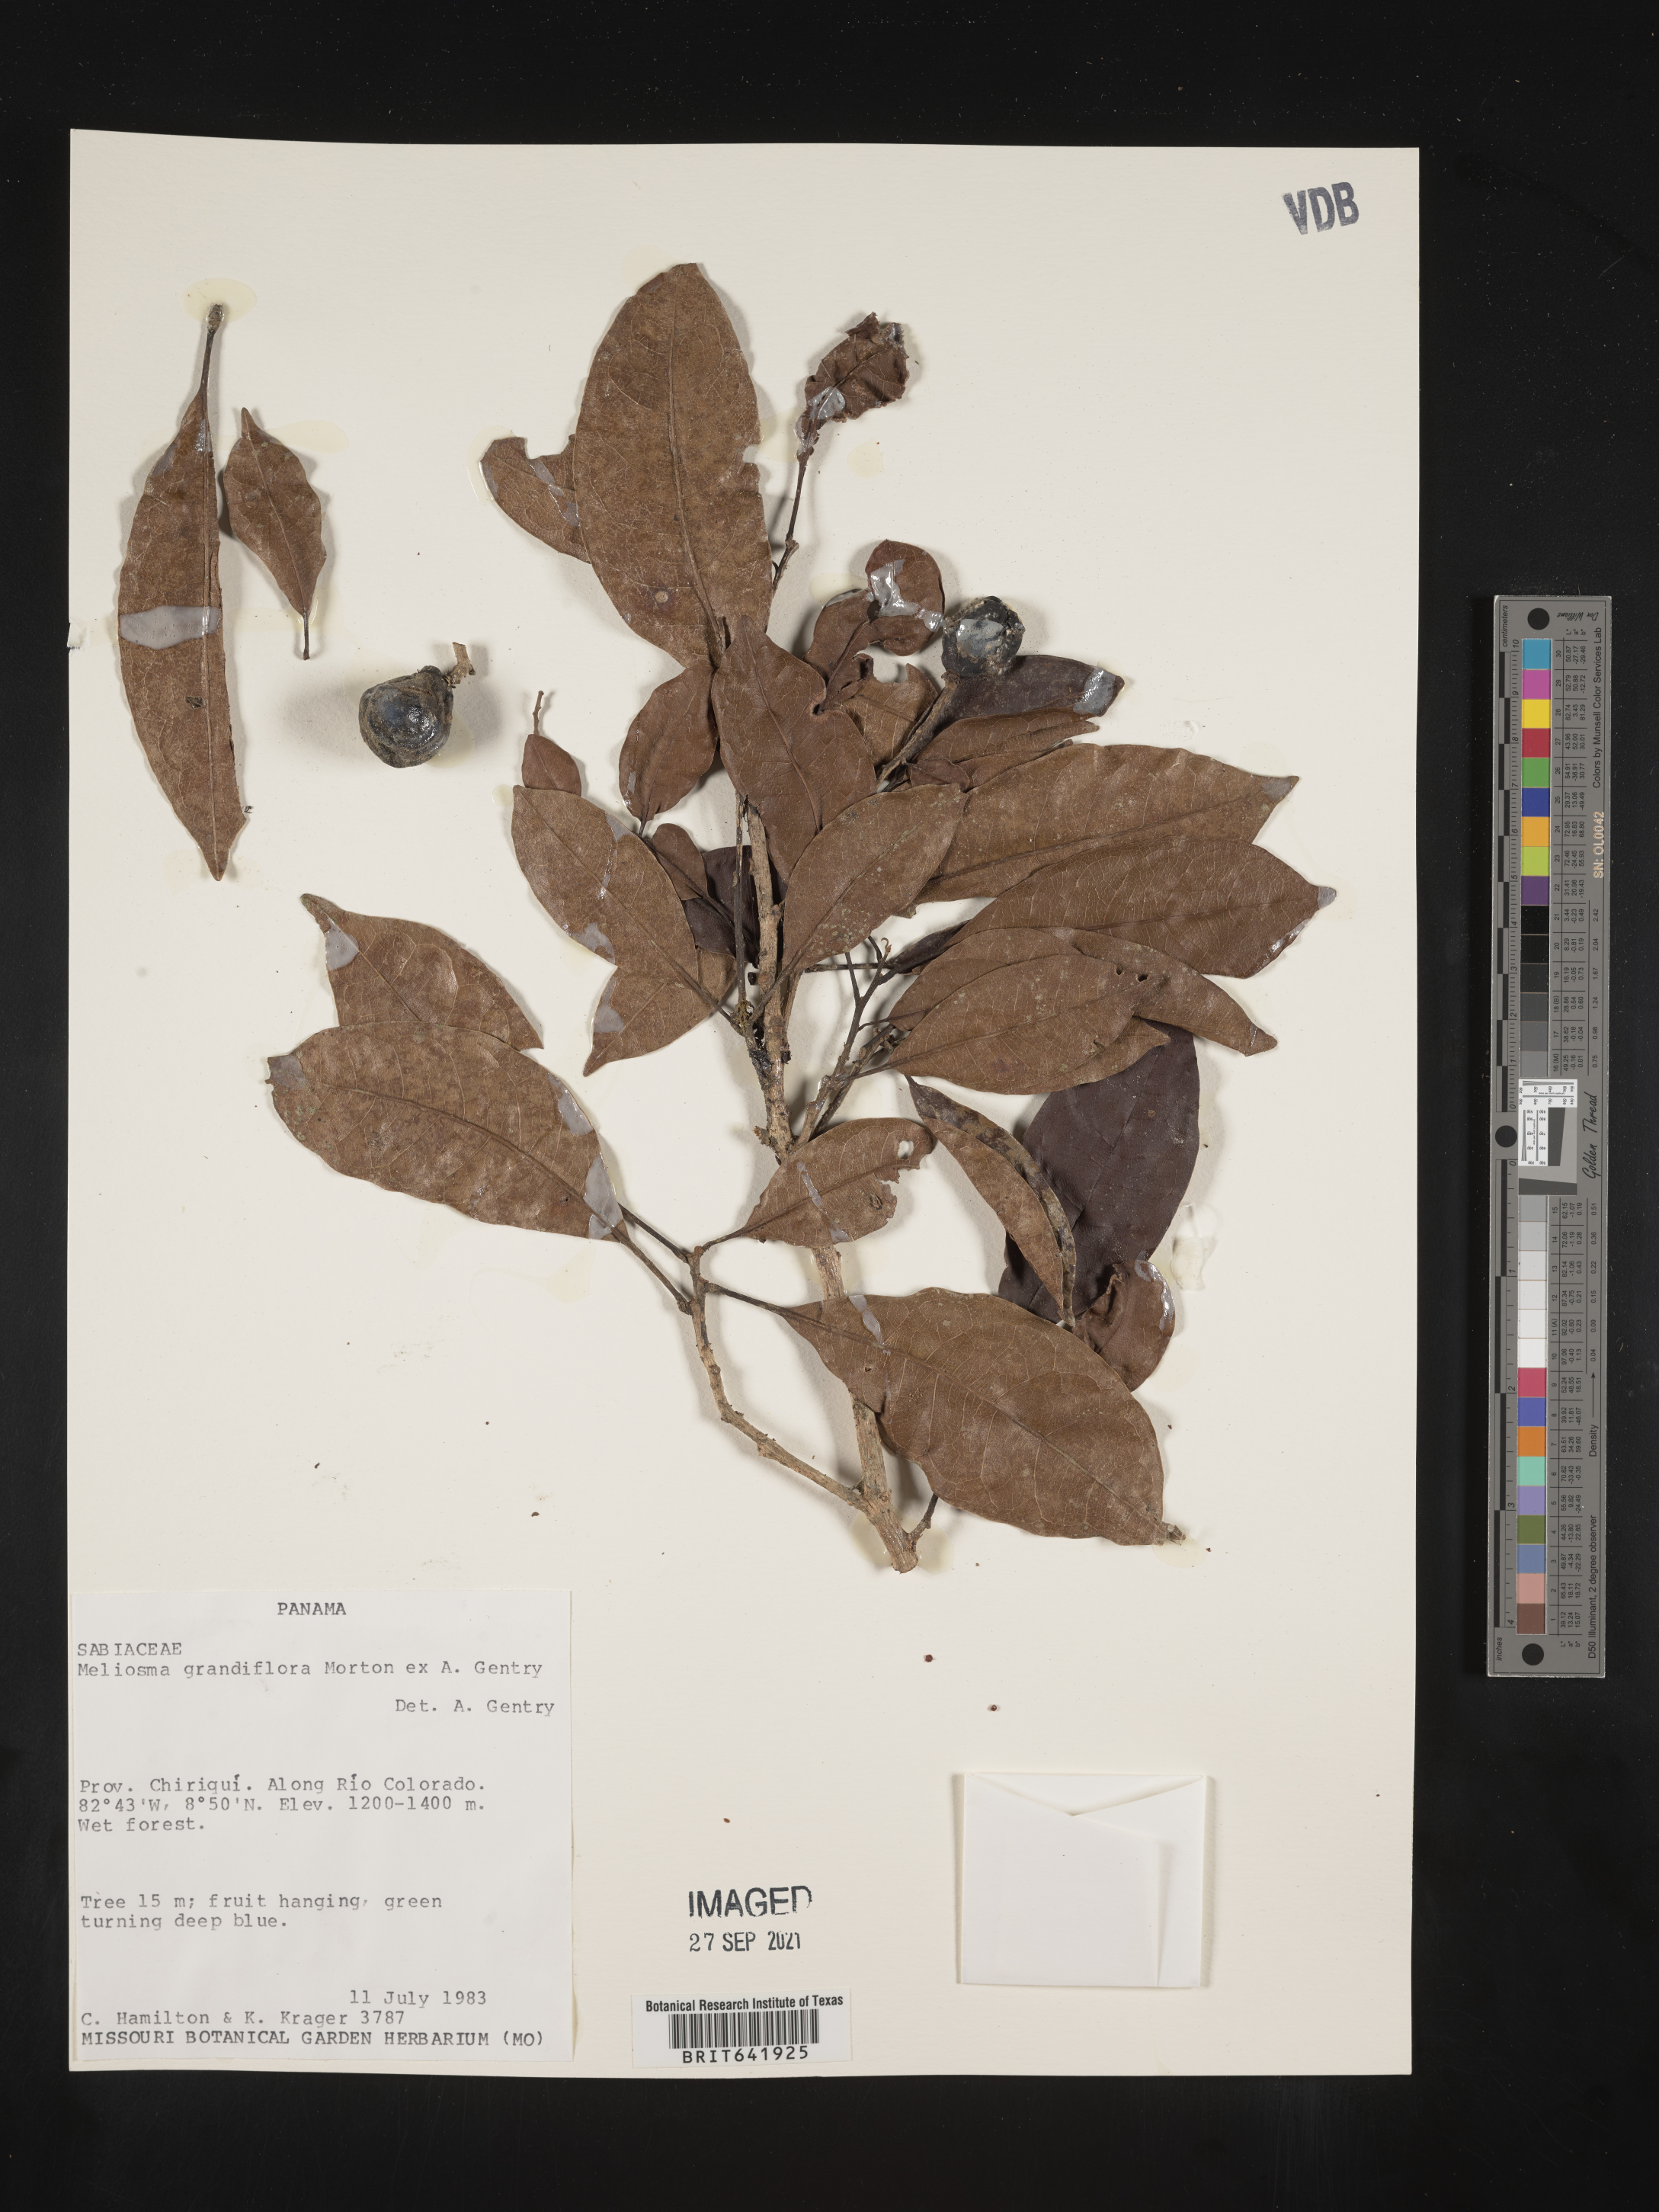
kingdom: Plantae
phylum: Tracheophyta
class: Magnoliopsida
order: Proteales
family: Sabiaceae
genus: Meliosma
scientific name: Meliosma
